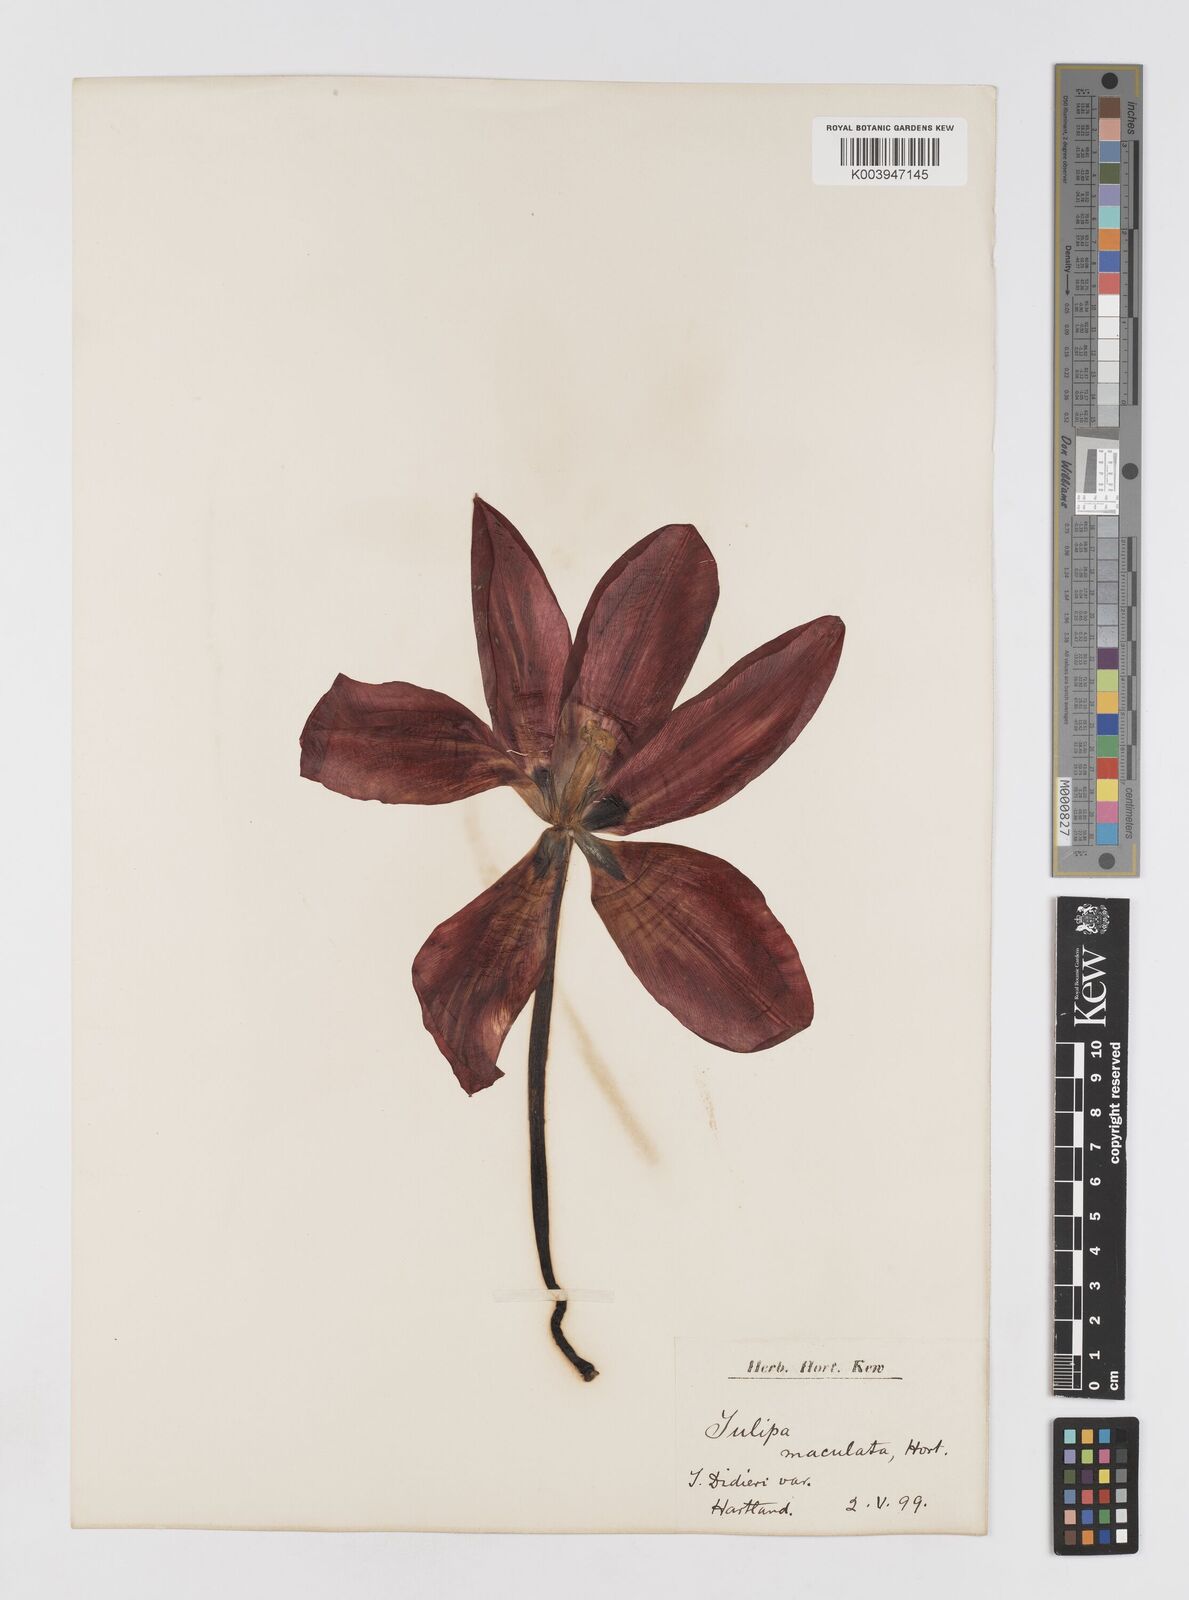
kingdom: Plantae
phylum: Tracheophyta
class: Liliopsida
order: Liliales
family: Liliaceae
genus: Tulipa
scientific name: Tulipa gesneriana
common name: Garden tulip
